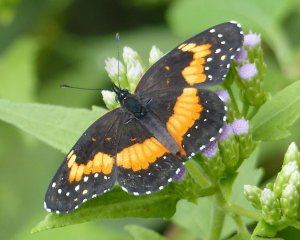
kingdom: Animalia
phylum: Arthropoda
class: Insecta
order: Lepidoptera
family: Nymphalidae
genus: Chlosyne
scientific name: Chlosyne lacinia
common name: Bordered Patch
